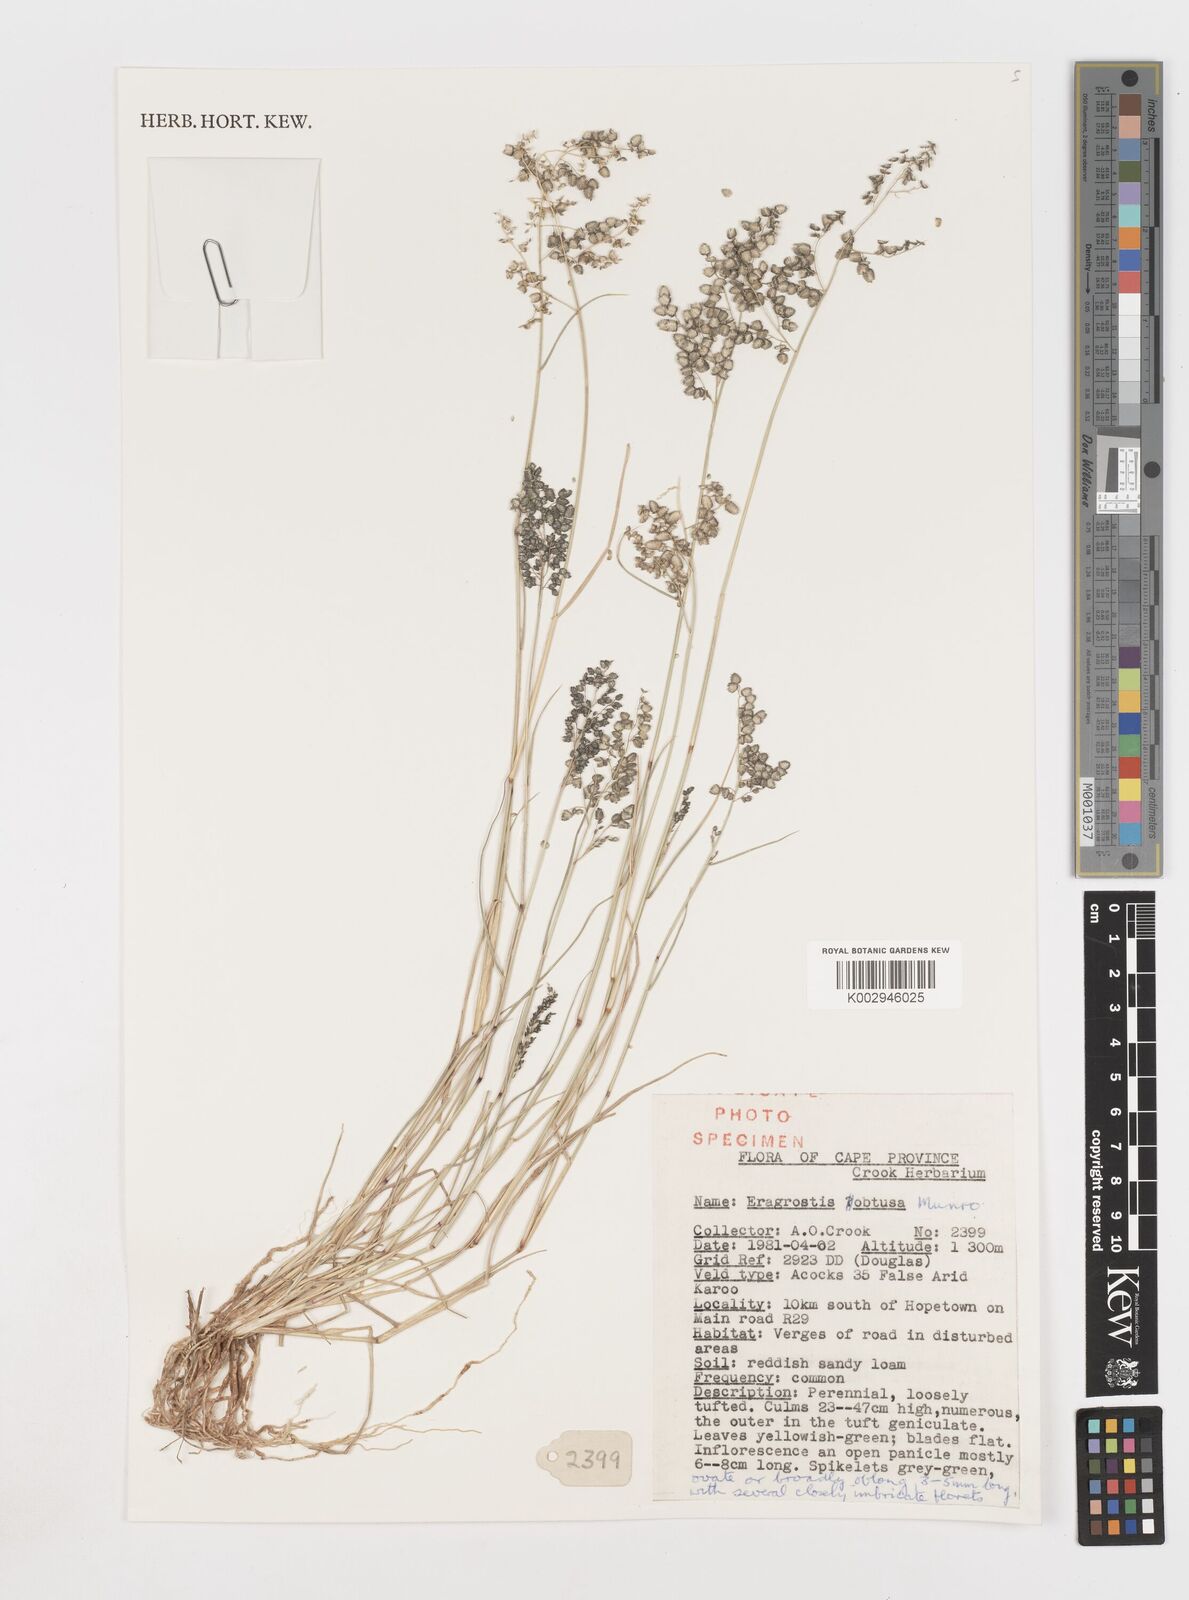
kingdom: Plantae
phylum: Tracheophyta
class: Liliopsida
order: Poales
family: Poaceae
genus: Eragrostis
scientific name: Eragrostis obtusa
